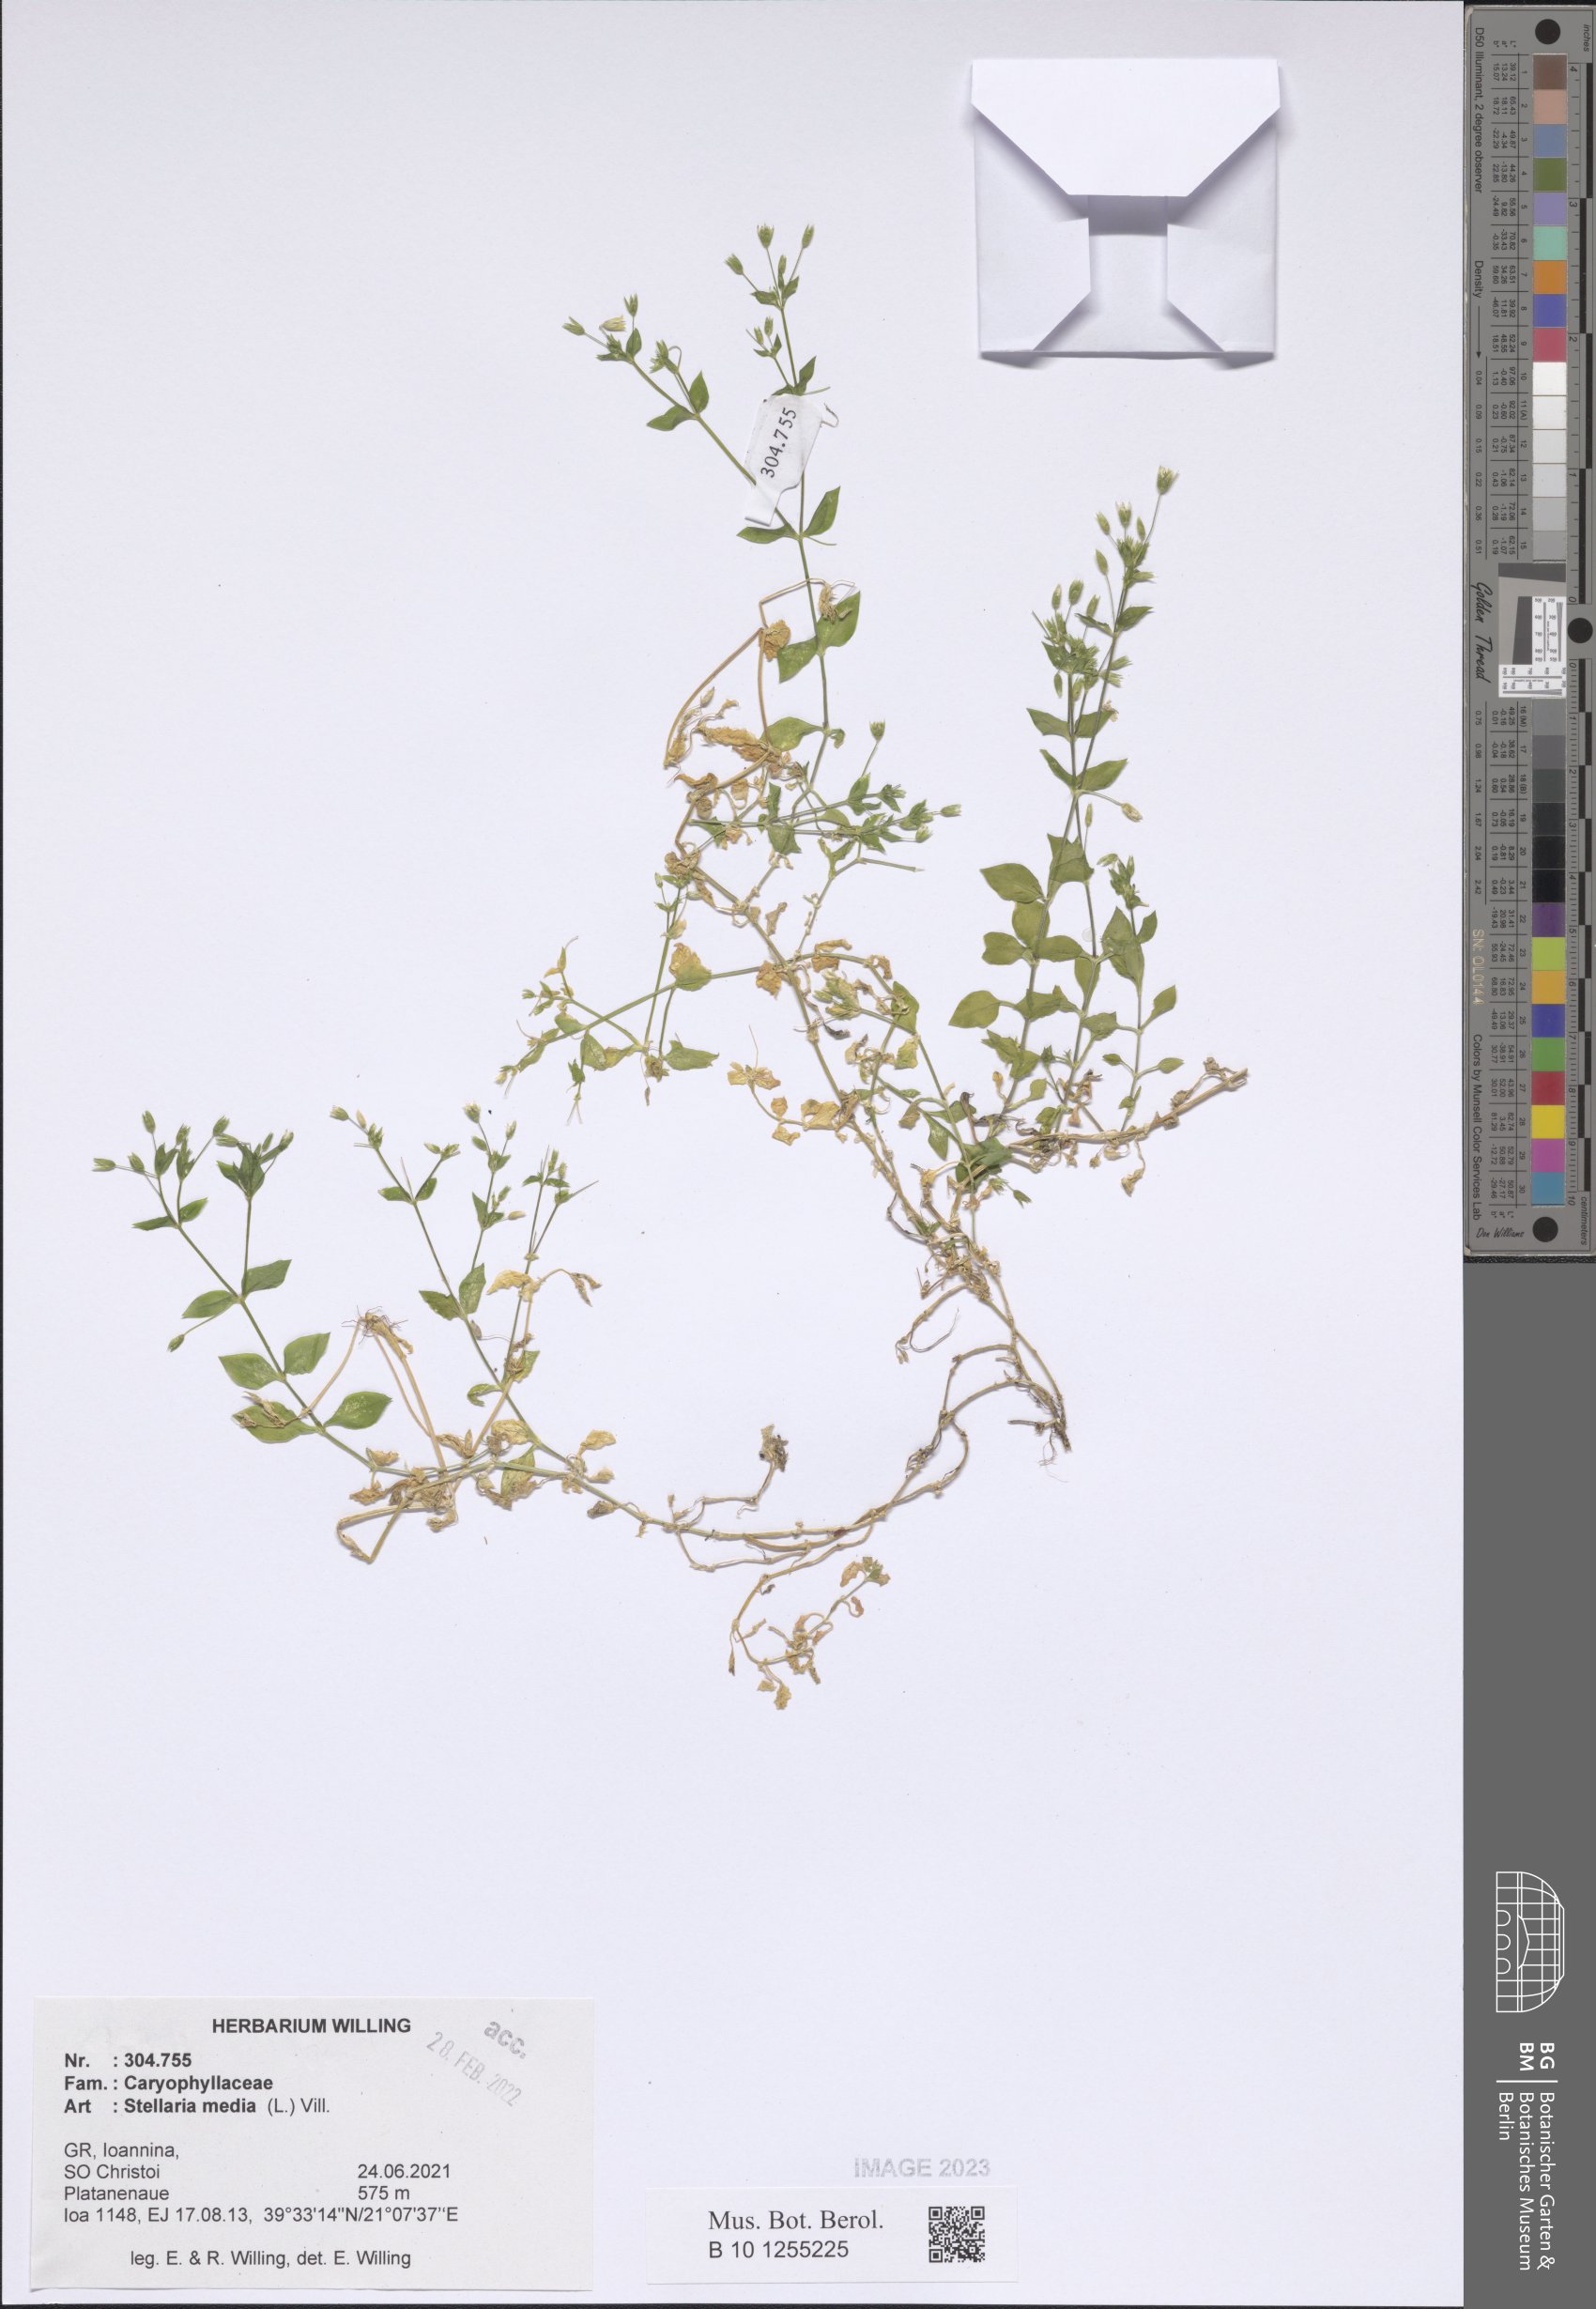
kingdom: Plantae
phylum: Tracheophyta
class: Magnoliopsida
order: Caryophyllales
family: Caryophyllaceae
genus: Stellaria
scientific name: Stellaria media
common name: Common chickweed
